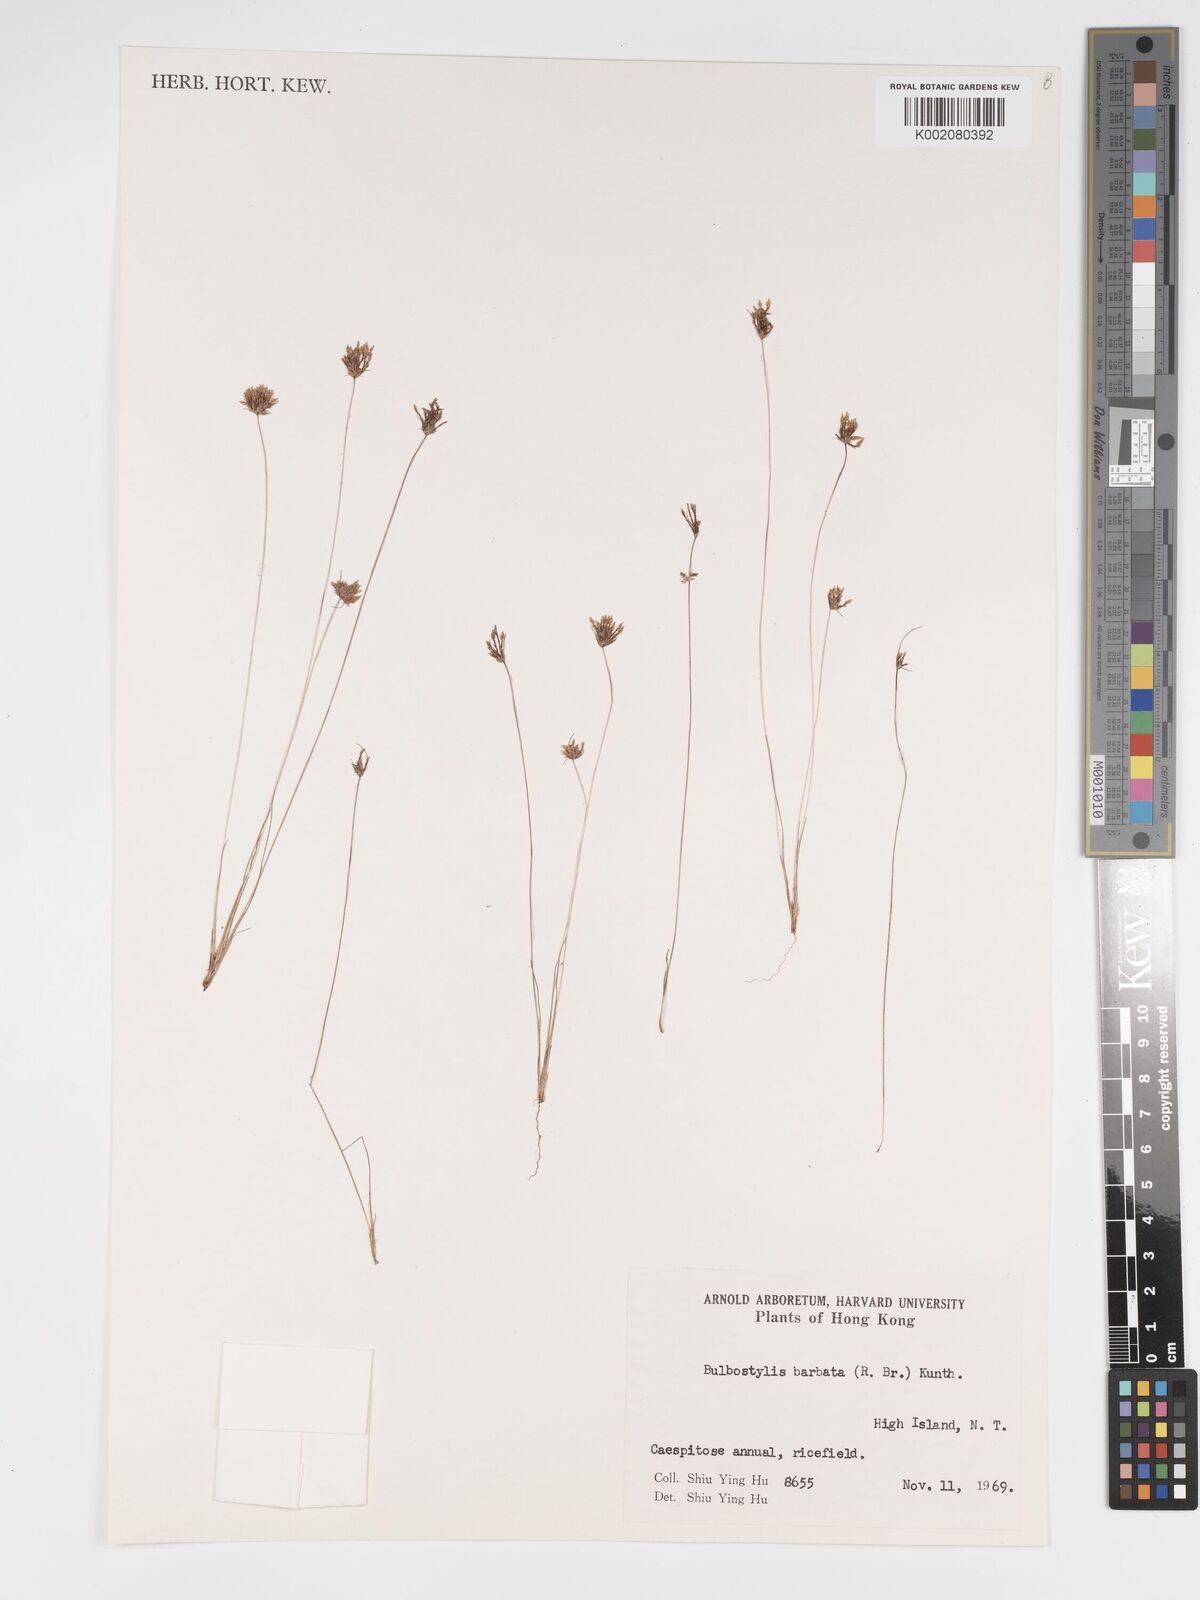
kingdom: Plantae
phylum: Tracheophyta
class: Liliopsida
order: Poales
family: Cyperaceae
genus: Bulbostylis
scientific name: Bulbostylis barbata
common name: Watergrass
